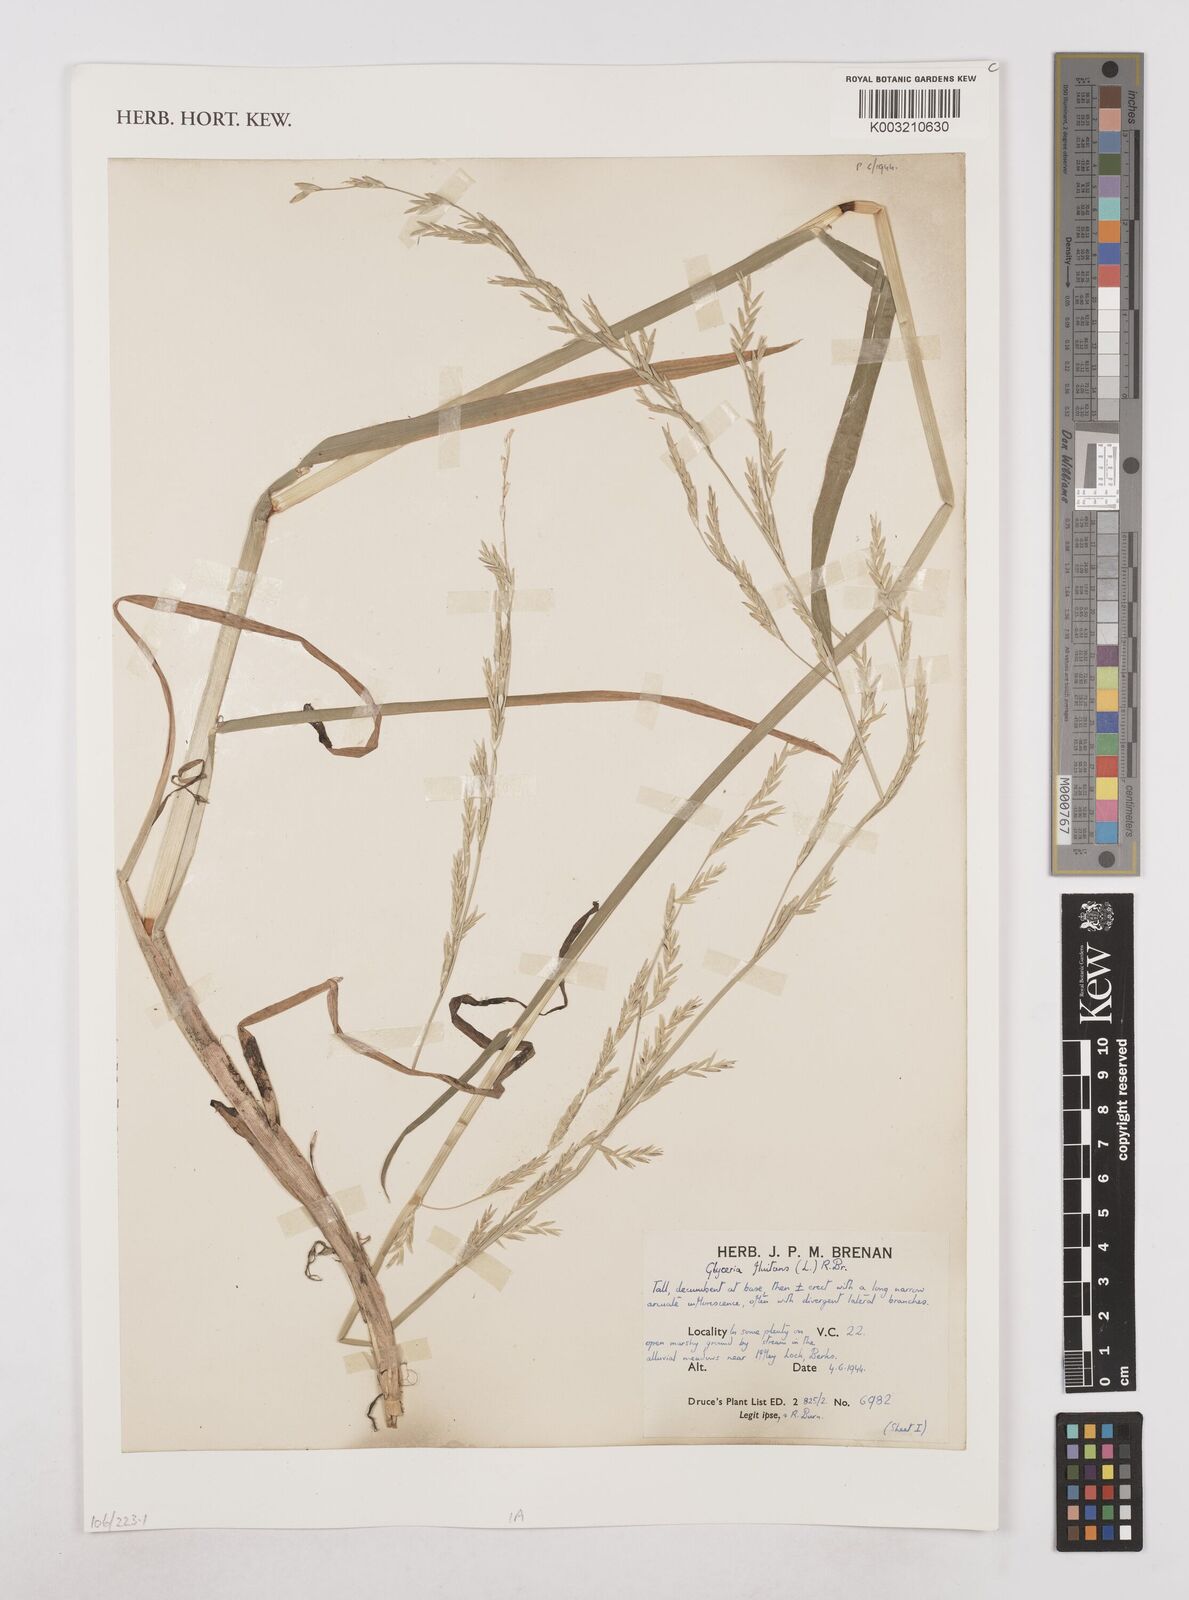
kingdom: Plantae
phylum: Tracheophyta
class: Liliopsida
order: Poales
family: Poaceae
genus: Glyceria
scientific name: Glyceria fluitans
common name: Floating sweet-grass
